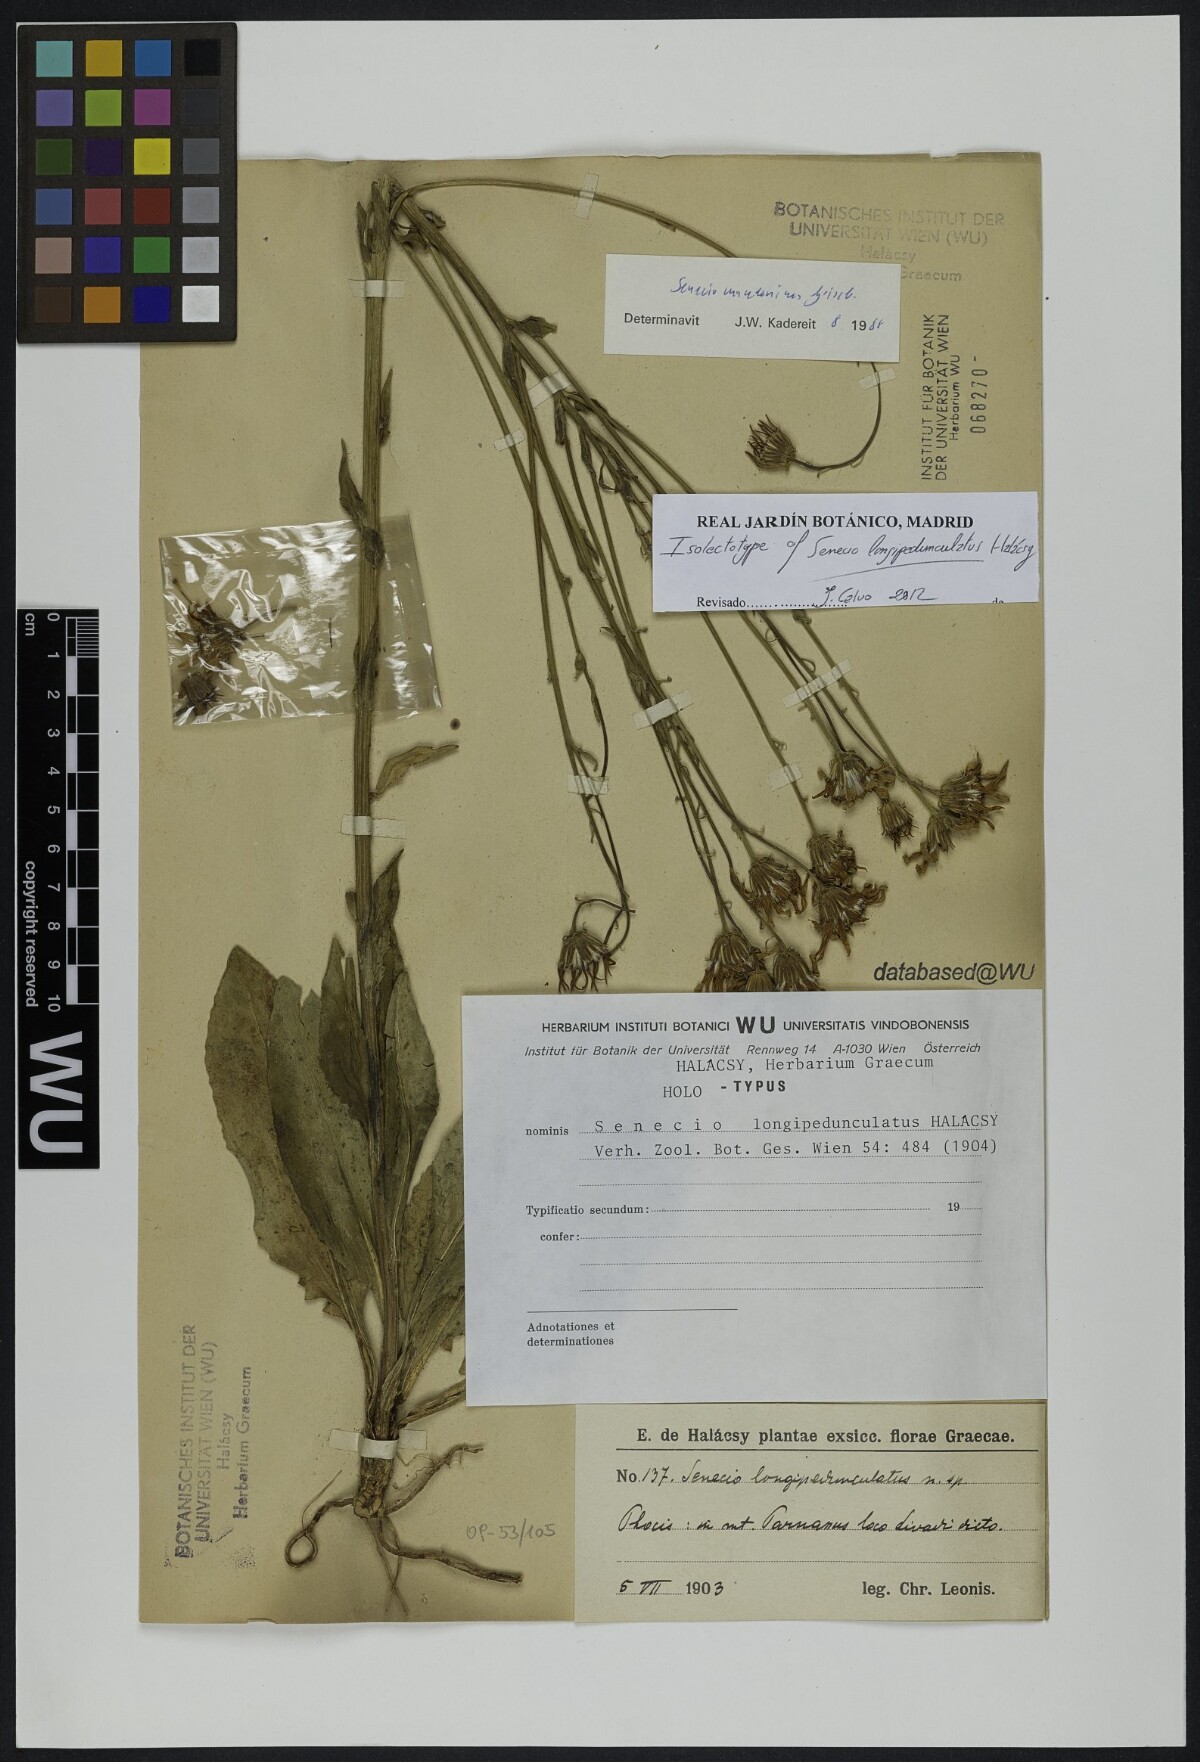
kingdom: Plantae
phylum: Tracheophyta
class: Magnoliopsida
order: Asterales
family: Asteraceae
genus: Senecio
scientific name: Senecio macedonicus
